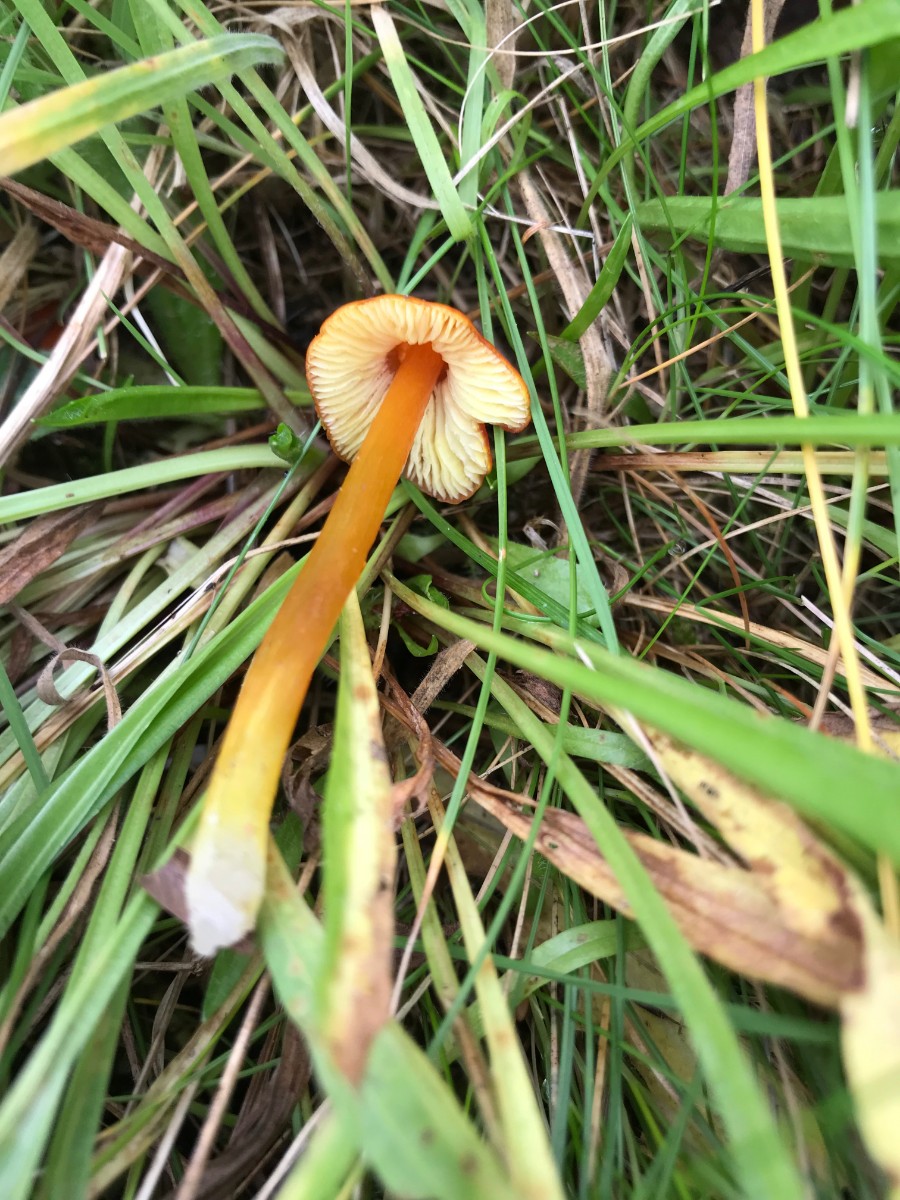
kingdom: Fungi
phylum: Basidiomycota
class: Agaricomycetes
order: Agaricales
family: Hygrophoraceae
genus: Hygrocybe
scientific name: Hygrocybe conica
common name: kegle-vokshat
